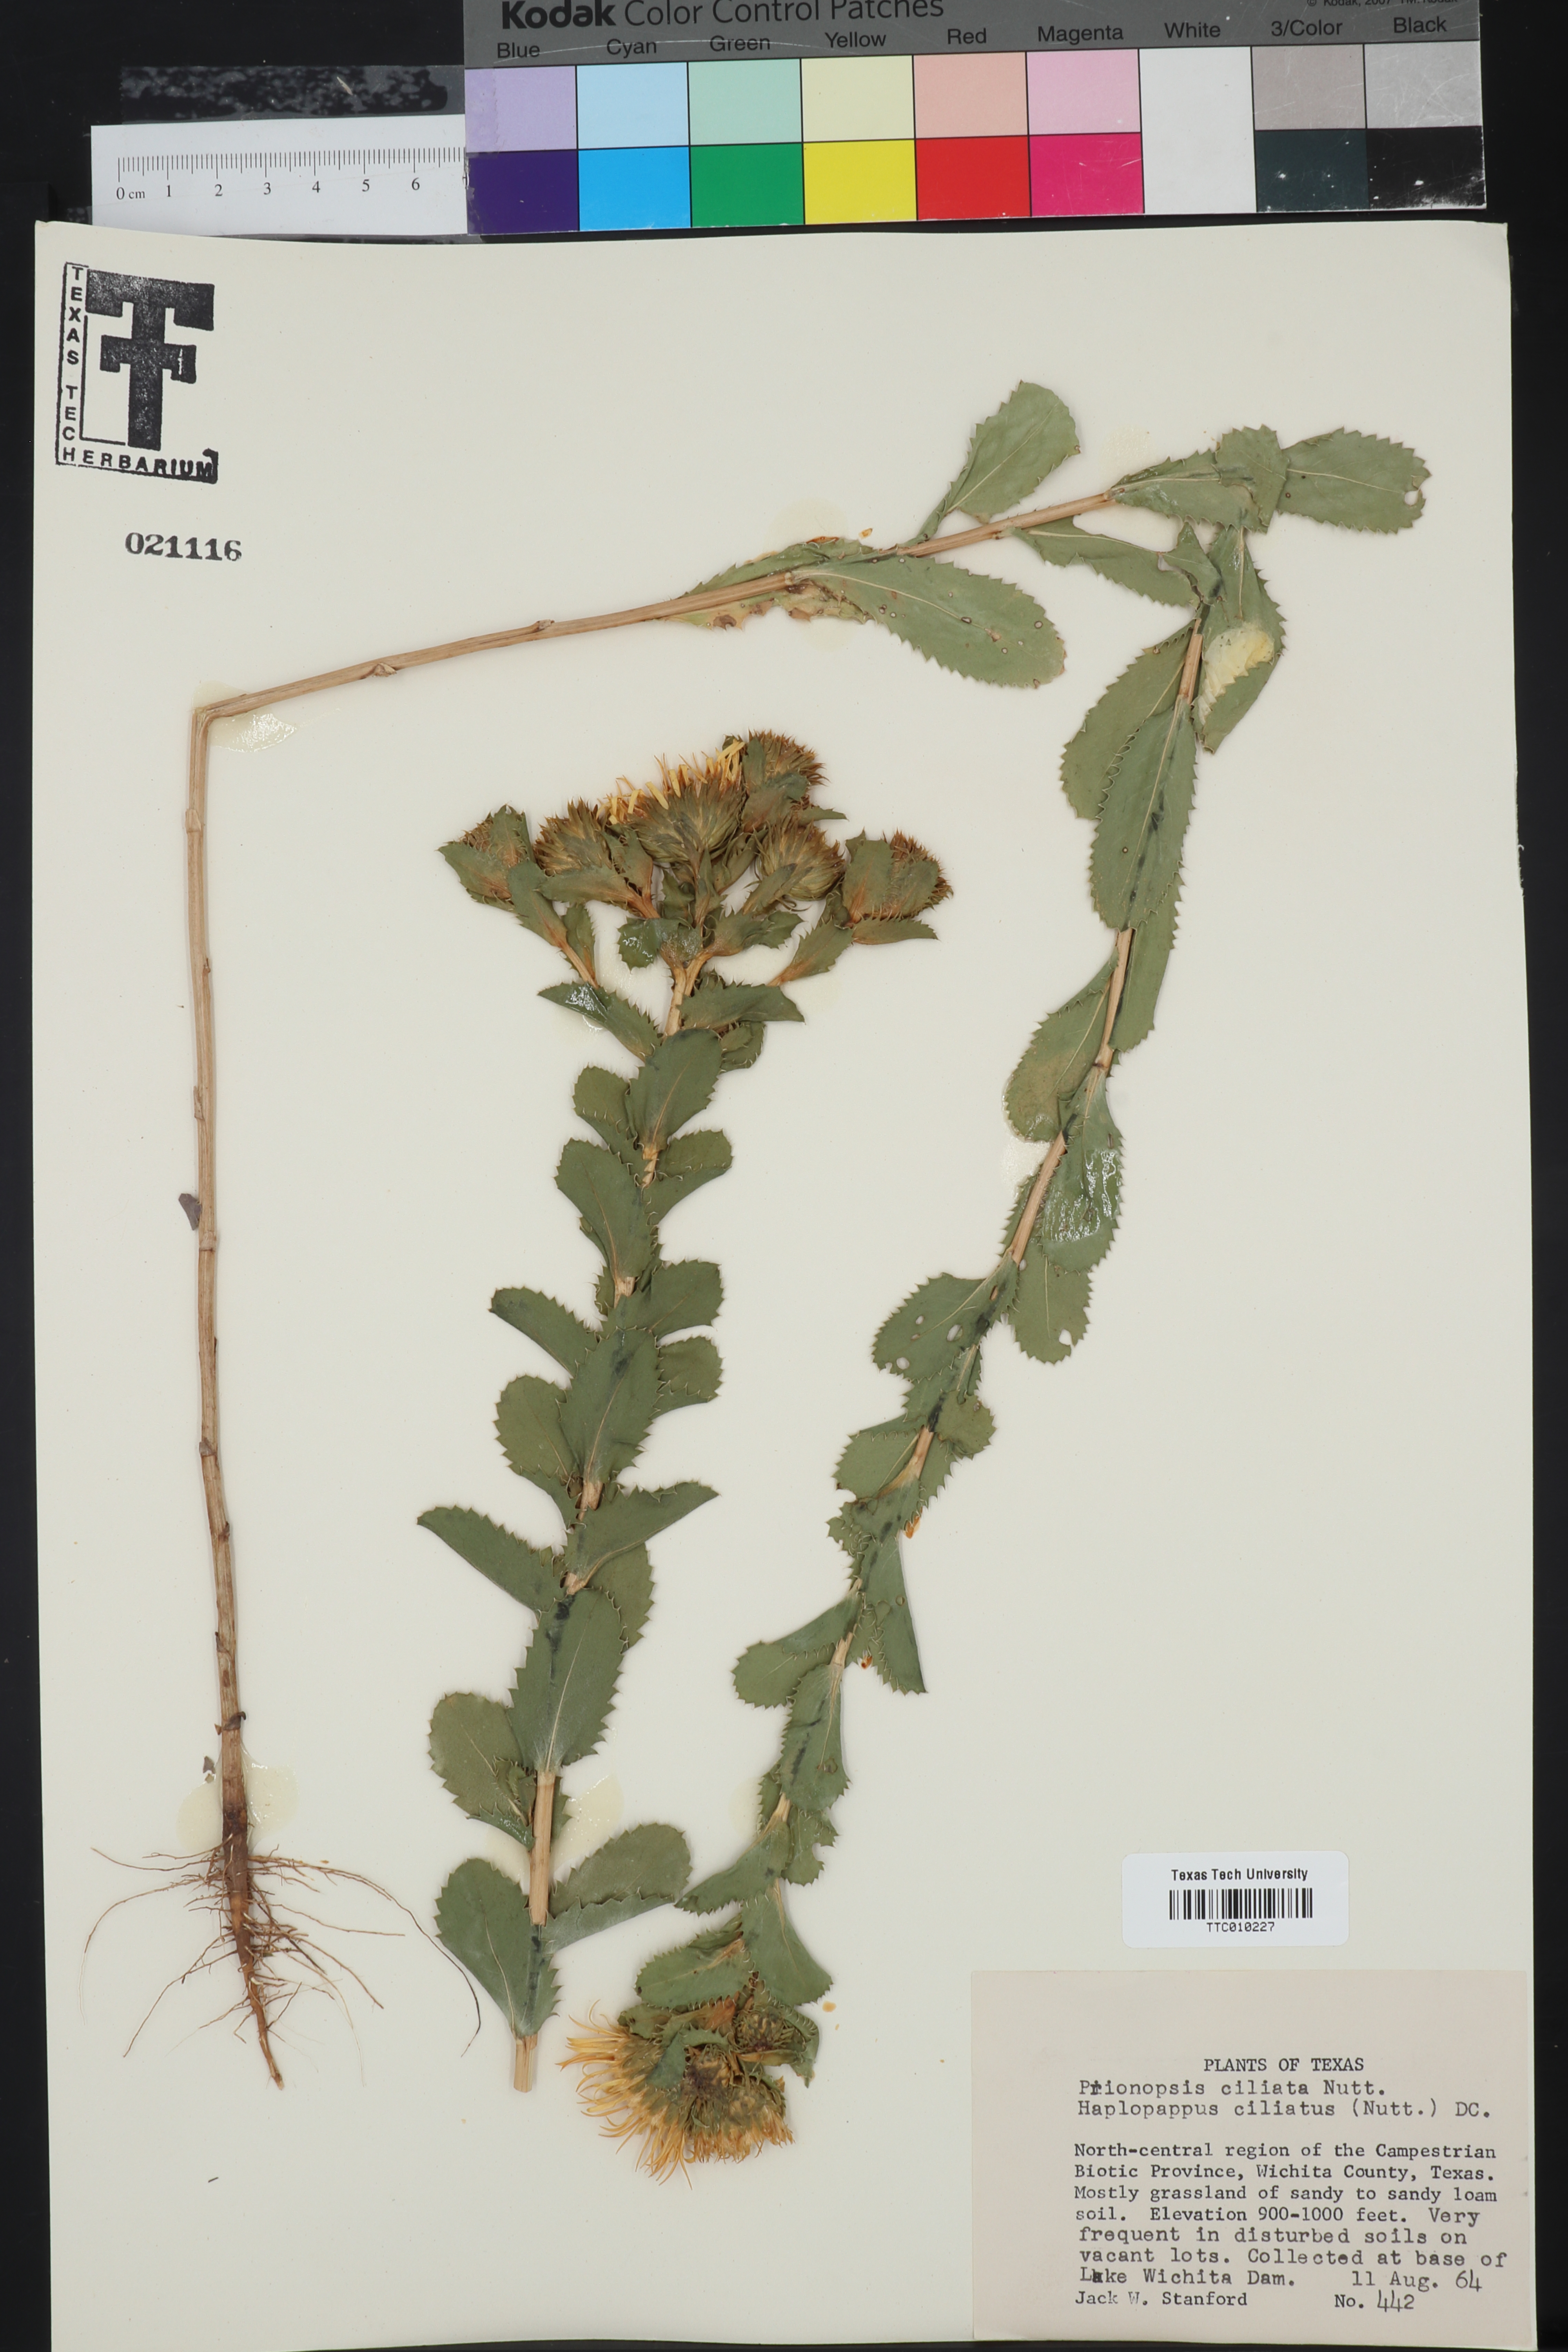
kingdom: Plantae
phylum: Tracheophyta
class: Magnoliopsida
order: Asterales
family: Asteraceae
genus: Grindelia
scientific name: Grindelia ciliata
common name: Goldenweed
